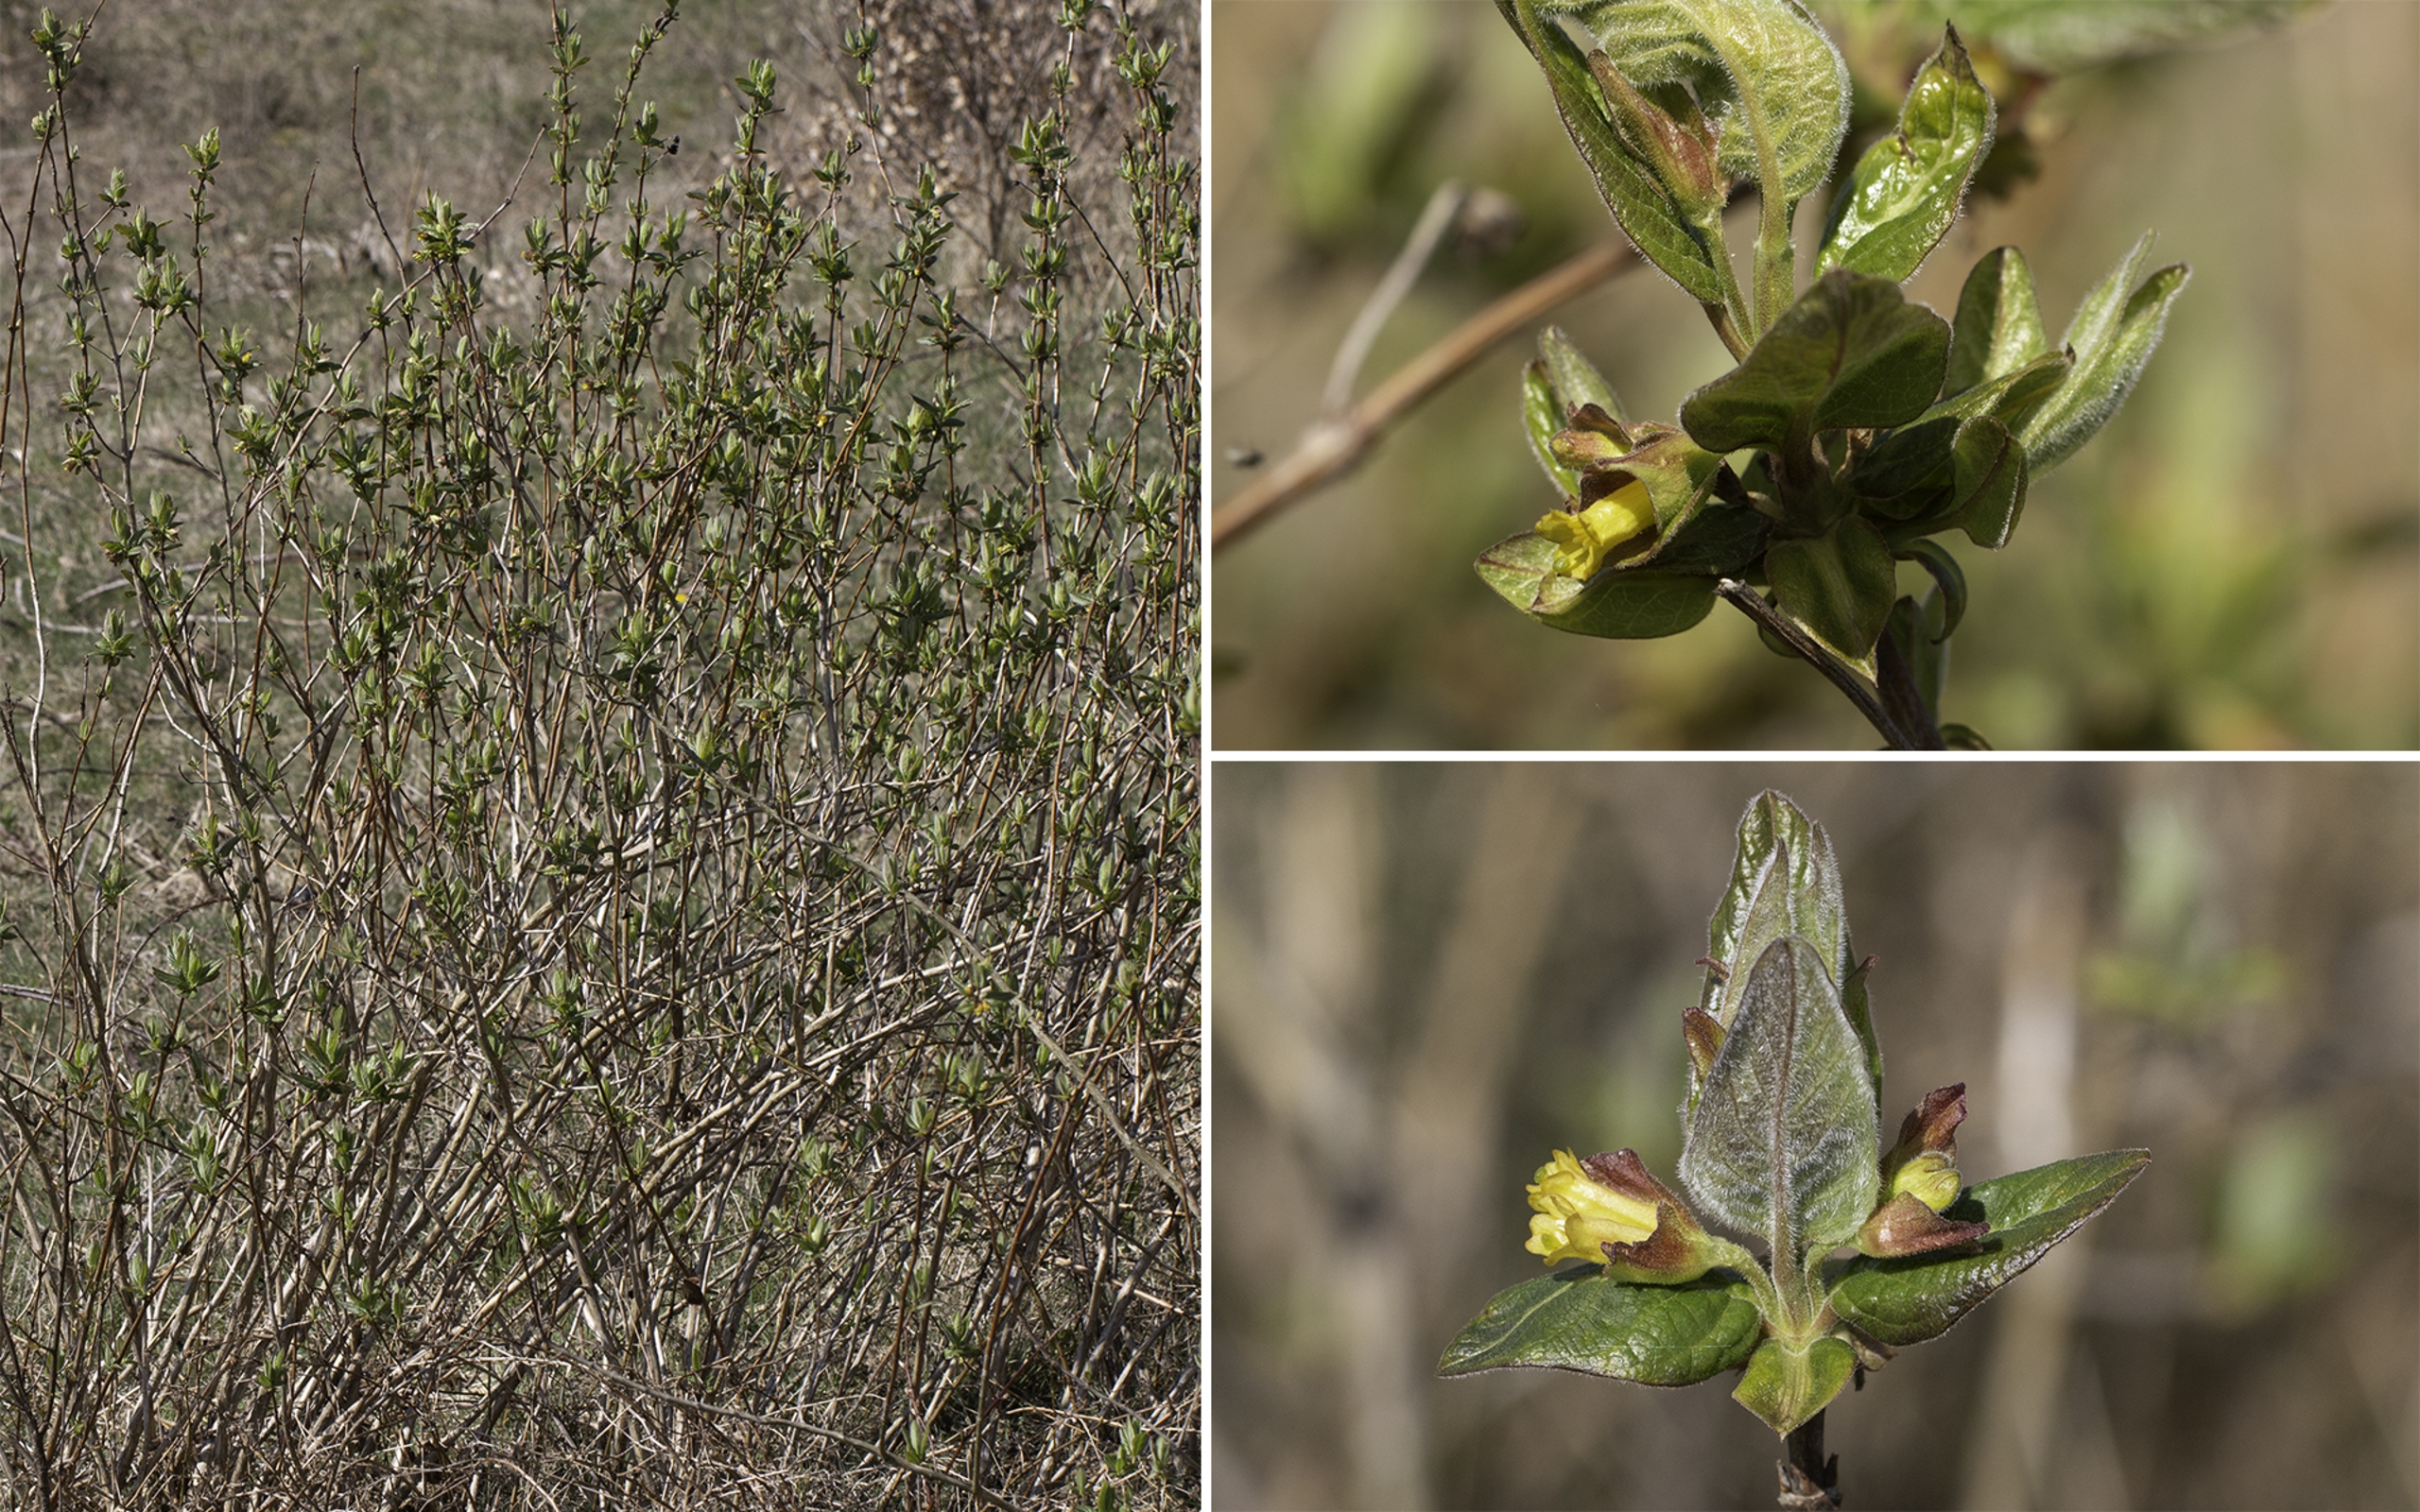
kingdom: Plantae
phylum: Tracheophyta
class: Magnoliopsida
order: Dipsacales
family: Caprifoliaceae
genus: Lonicera
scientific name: Lonicera involucrata
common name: Svøb-gedeblad (varietet)
